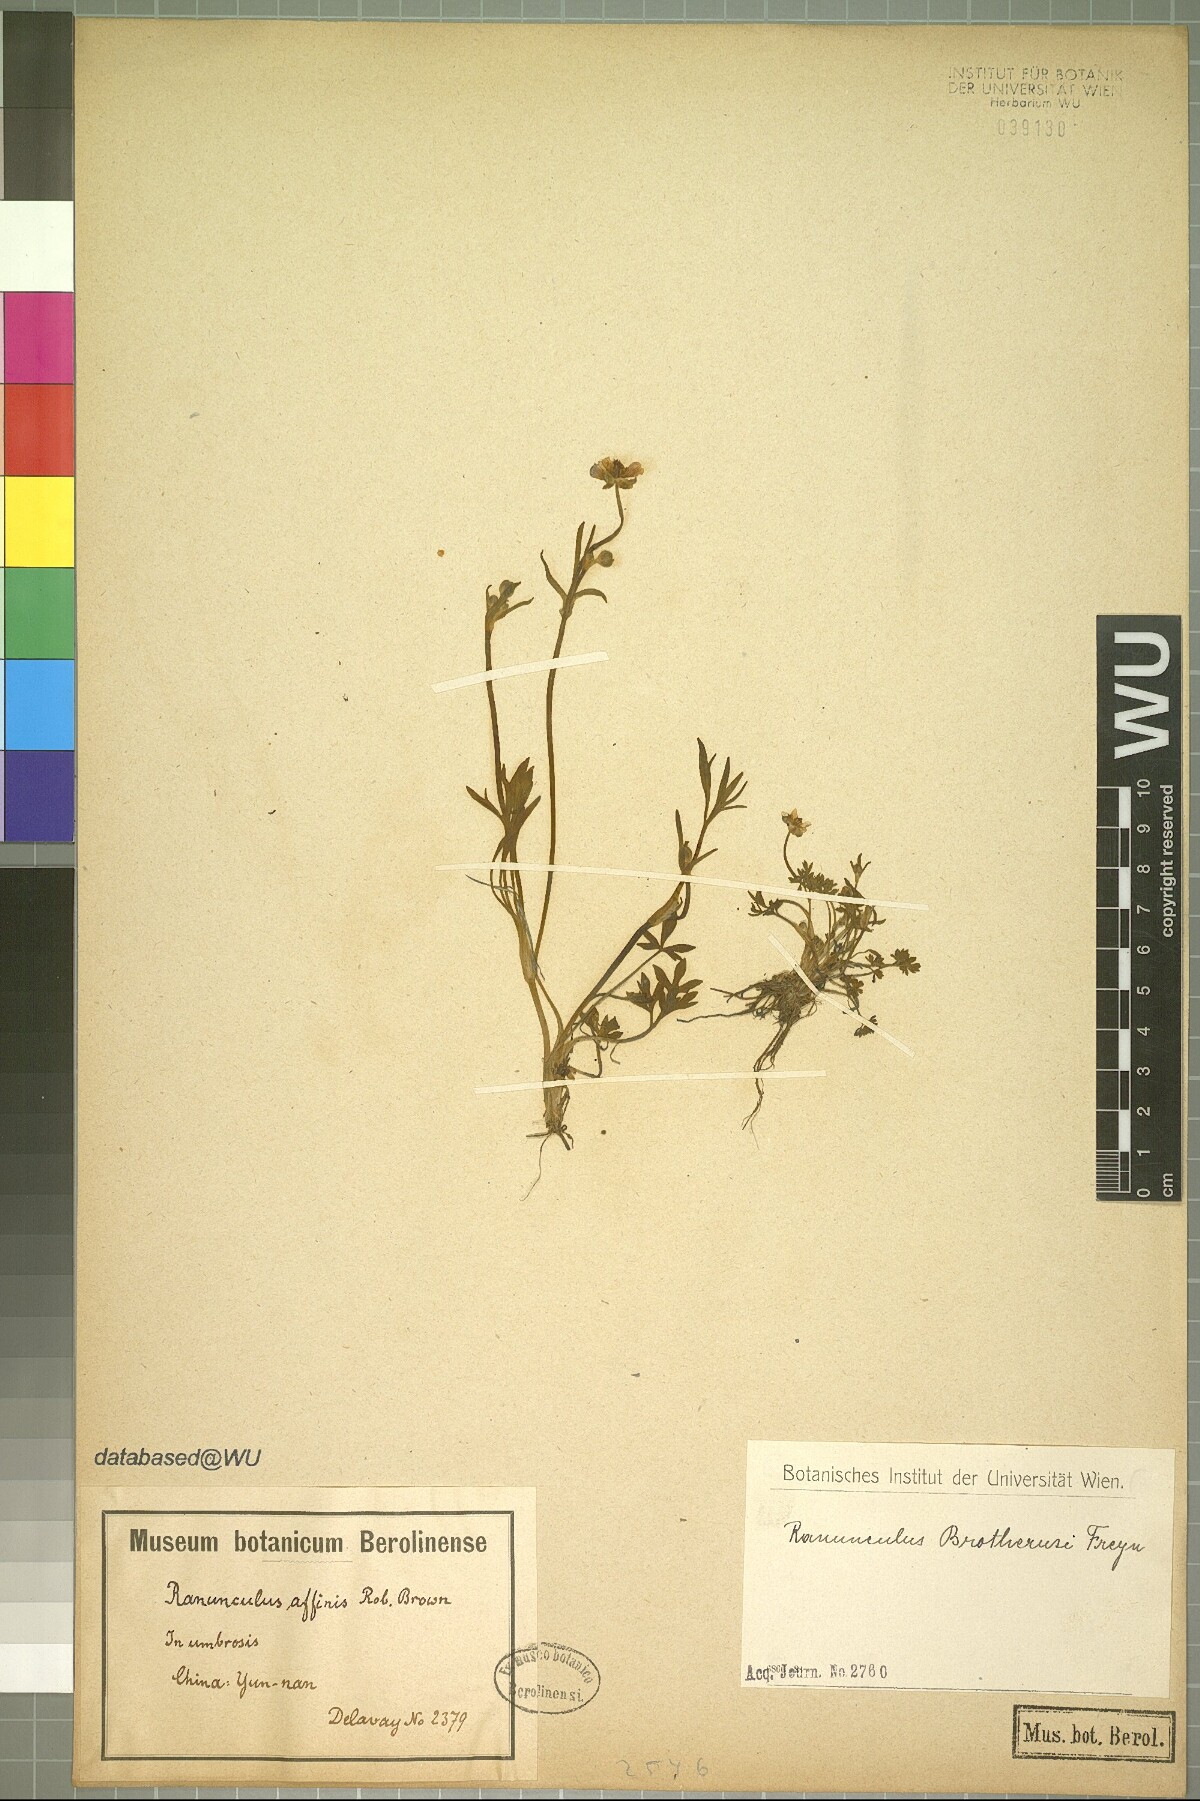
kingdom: Plantae
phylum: Tracheophyta
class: Magnoliopsida
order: Ranunculales
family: Ranunculaceae
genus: Ranunculus
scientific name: Ranunculus brotherusii
